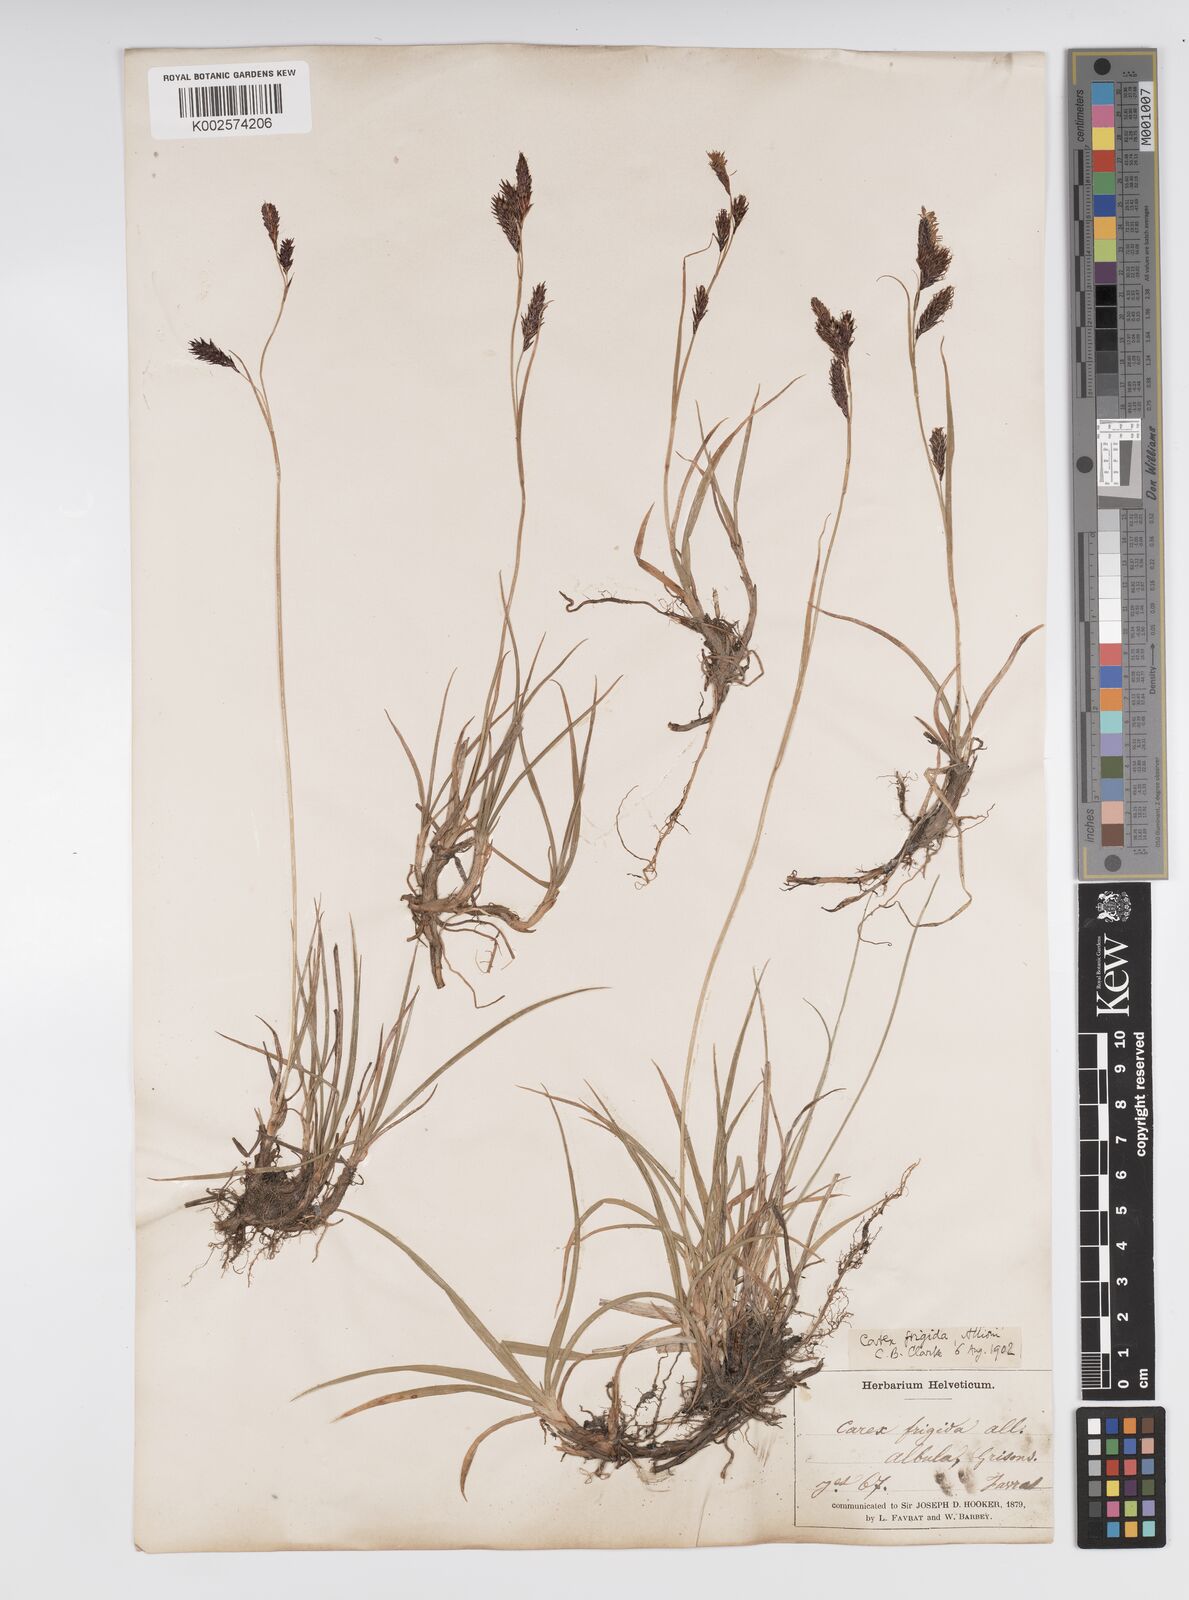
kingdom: Plantae
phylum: Tracheophyta
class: Liliopsida
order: Poales
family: Cyperaceae
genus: Carex
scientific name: Carex frigida
